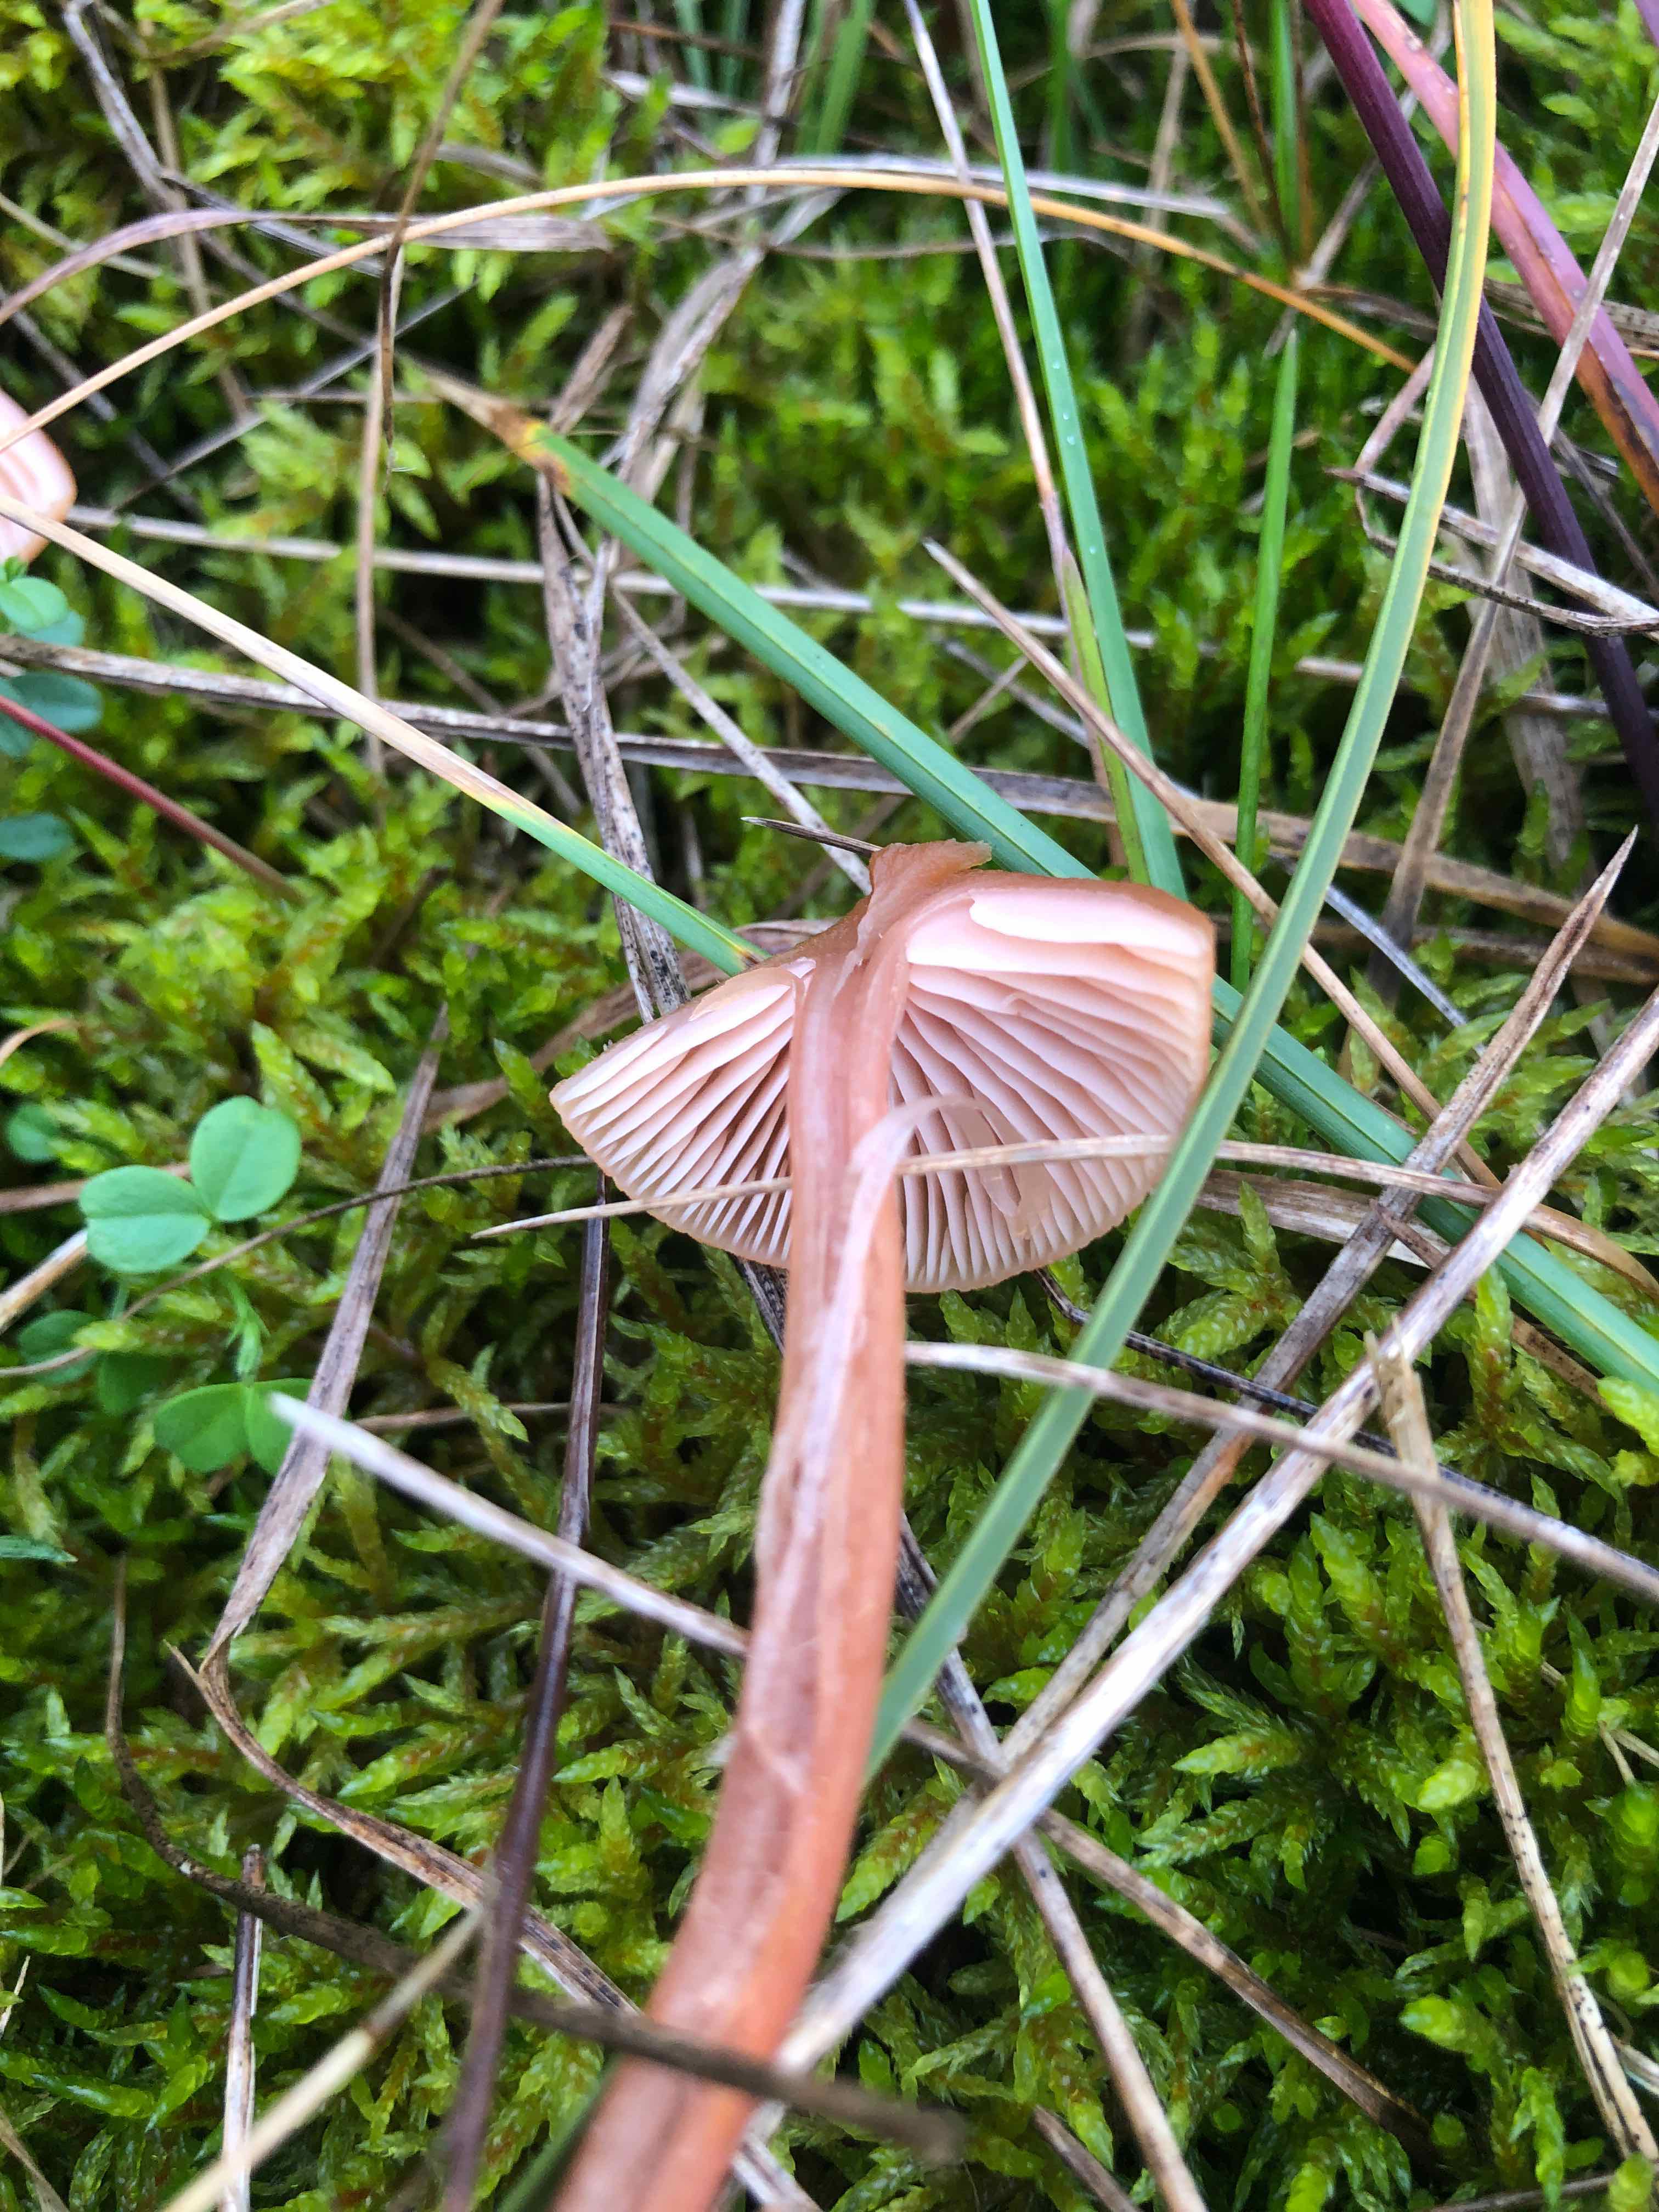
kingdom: Fungi
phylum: Basidiomycota
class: Agaricomycetes
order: Agaricales
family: Hydnangiaceae
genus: Laccaria
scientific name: Laccaria
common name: ametysthat
